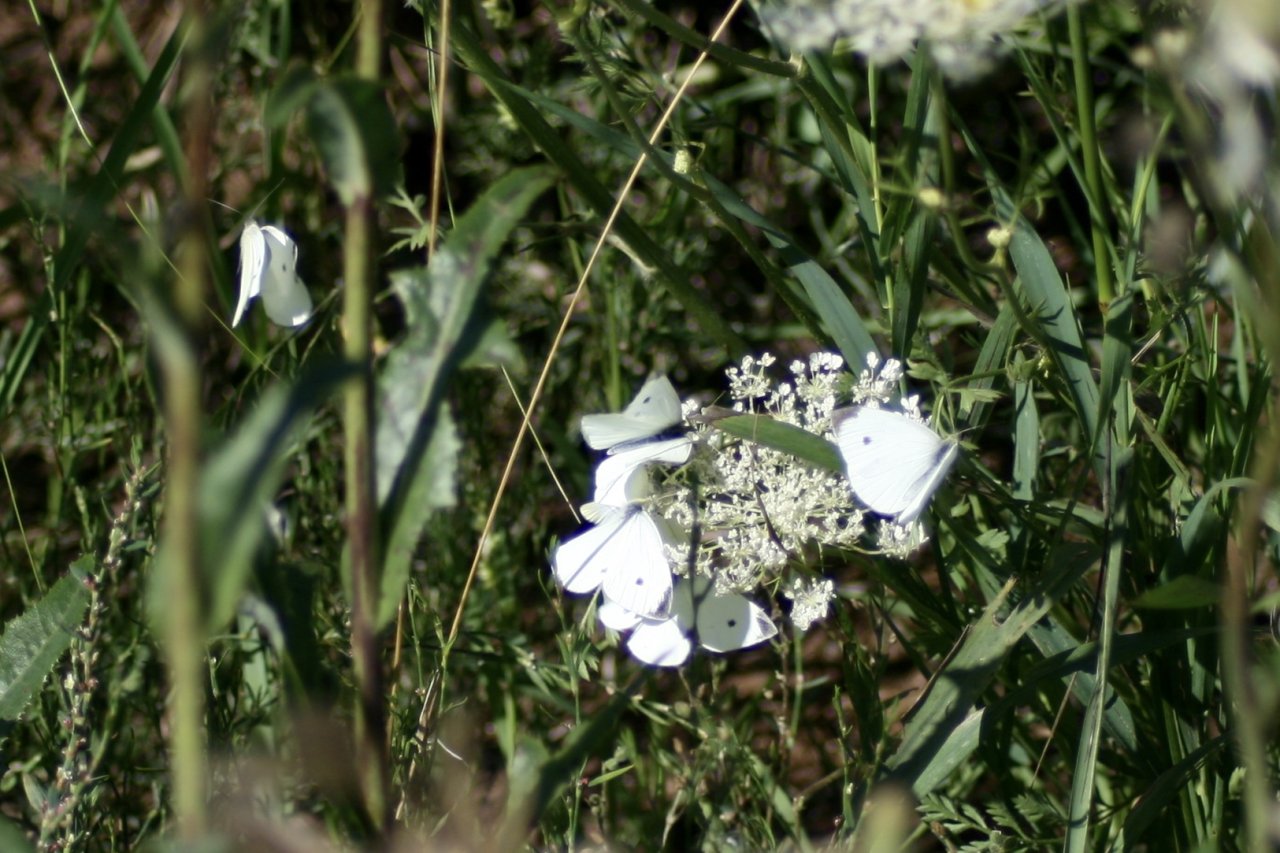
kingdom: Animalia
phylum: Arthropoda
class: Insecta
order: Lepidoptera
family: Pieridae
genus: Pieris
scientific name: Pieris rapae
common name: Cabbage White
